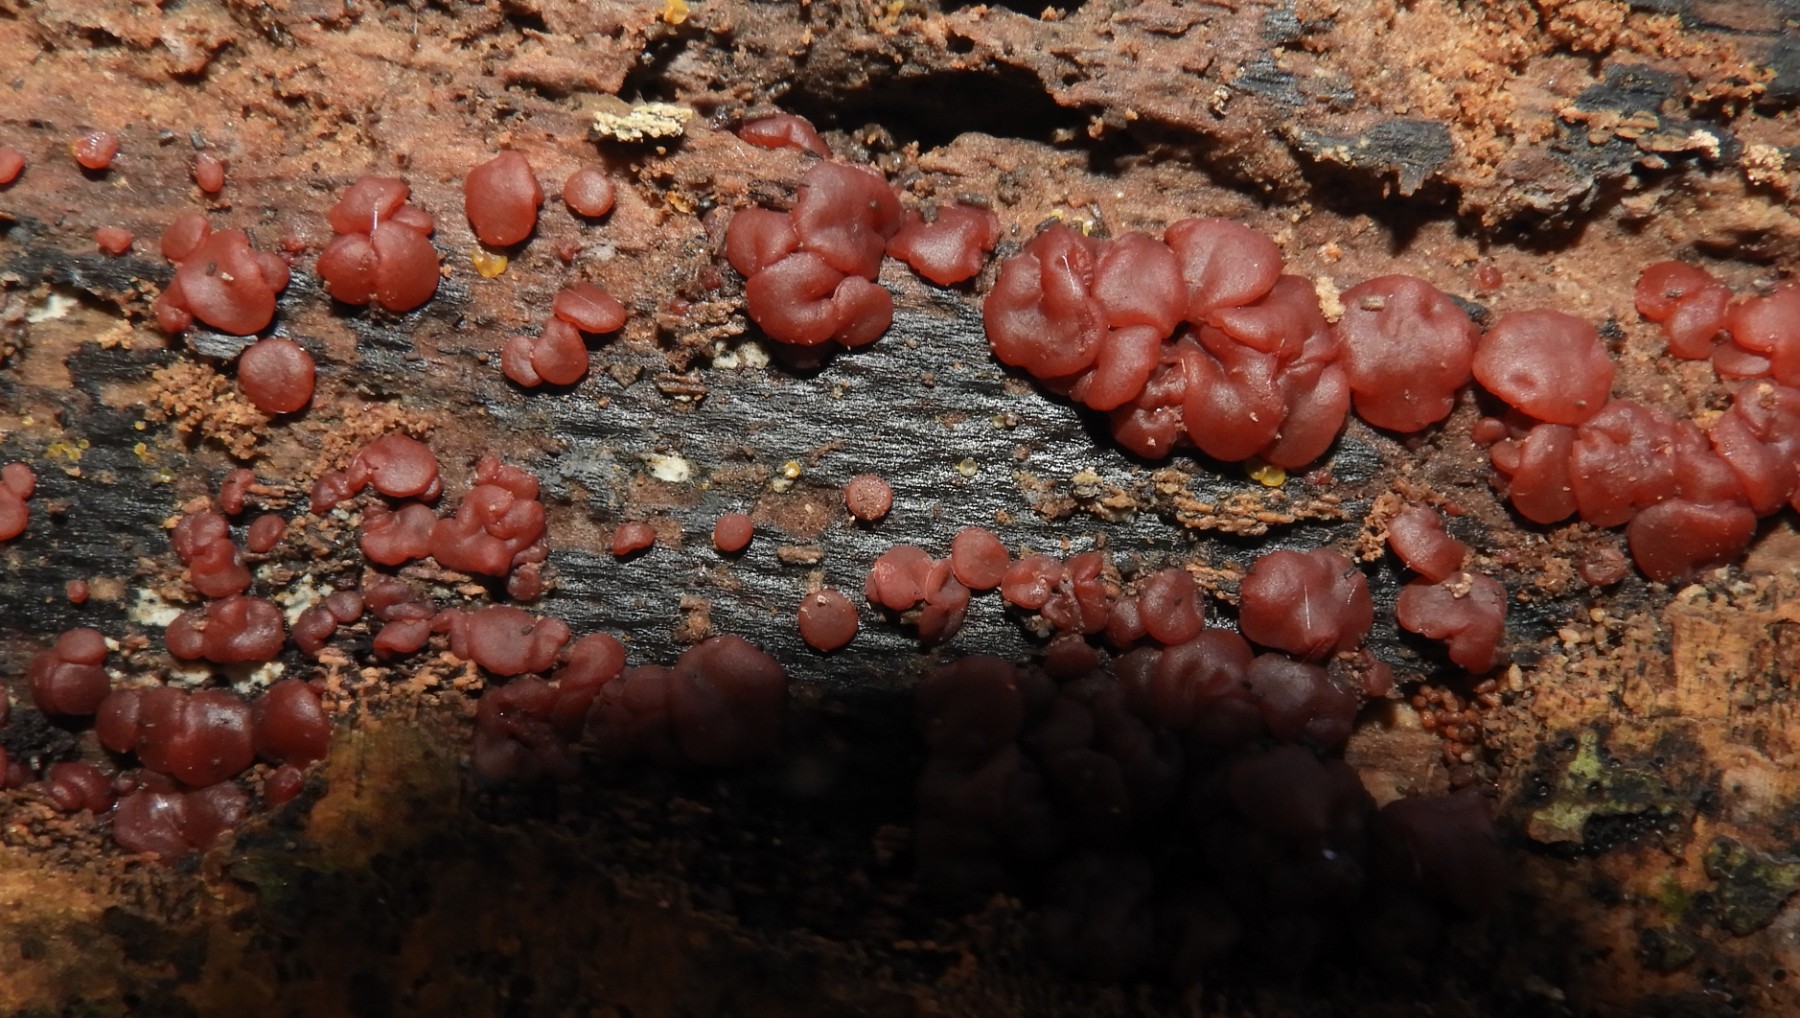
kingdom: Fungi
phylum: Ascomycota
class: Leotiomycetes
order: Helotiales
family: Gelatinodiscaceae
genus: Ascocoryne
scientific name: Ascocoryne inflata
